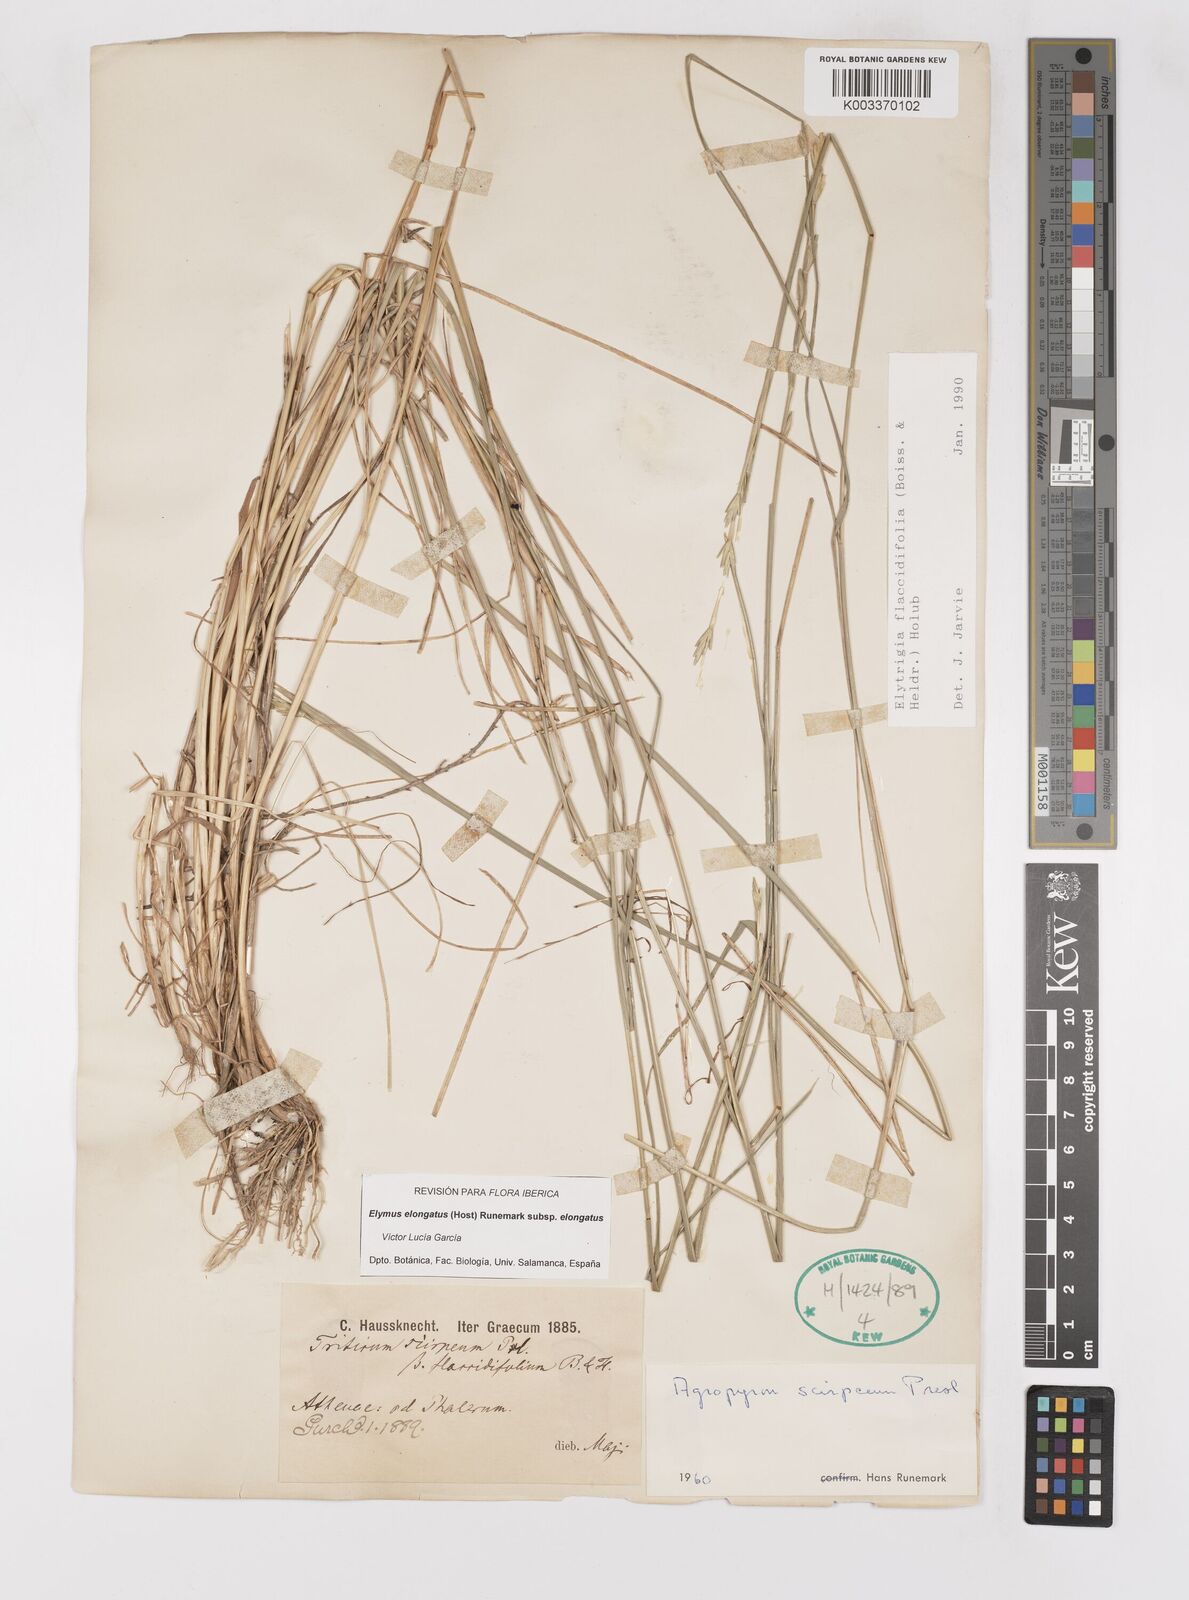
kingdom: Plantae
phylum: Tracheophyta
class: Liliopsida
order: Poales
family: Poaceae
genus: Thinopyrum
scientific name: Thinopyrum elongatum
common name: Tall wheatgrass
